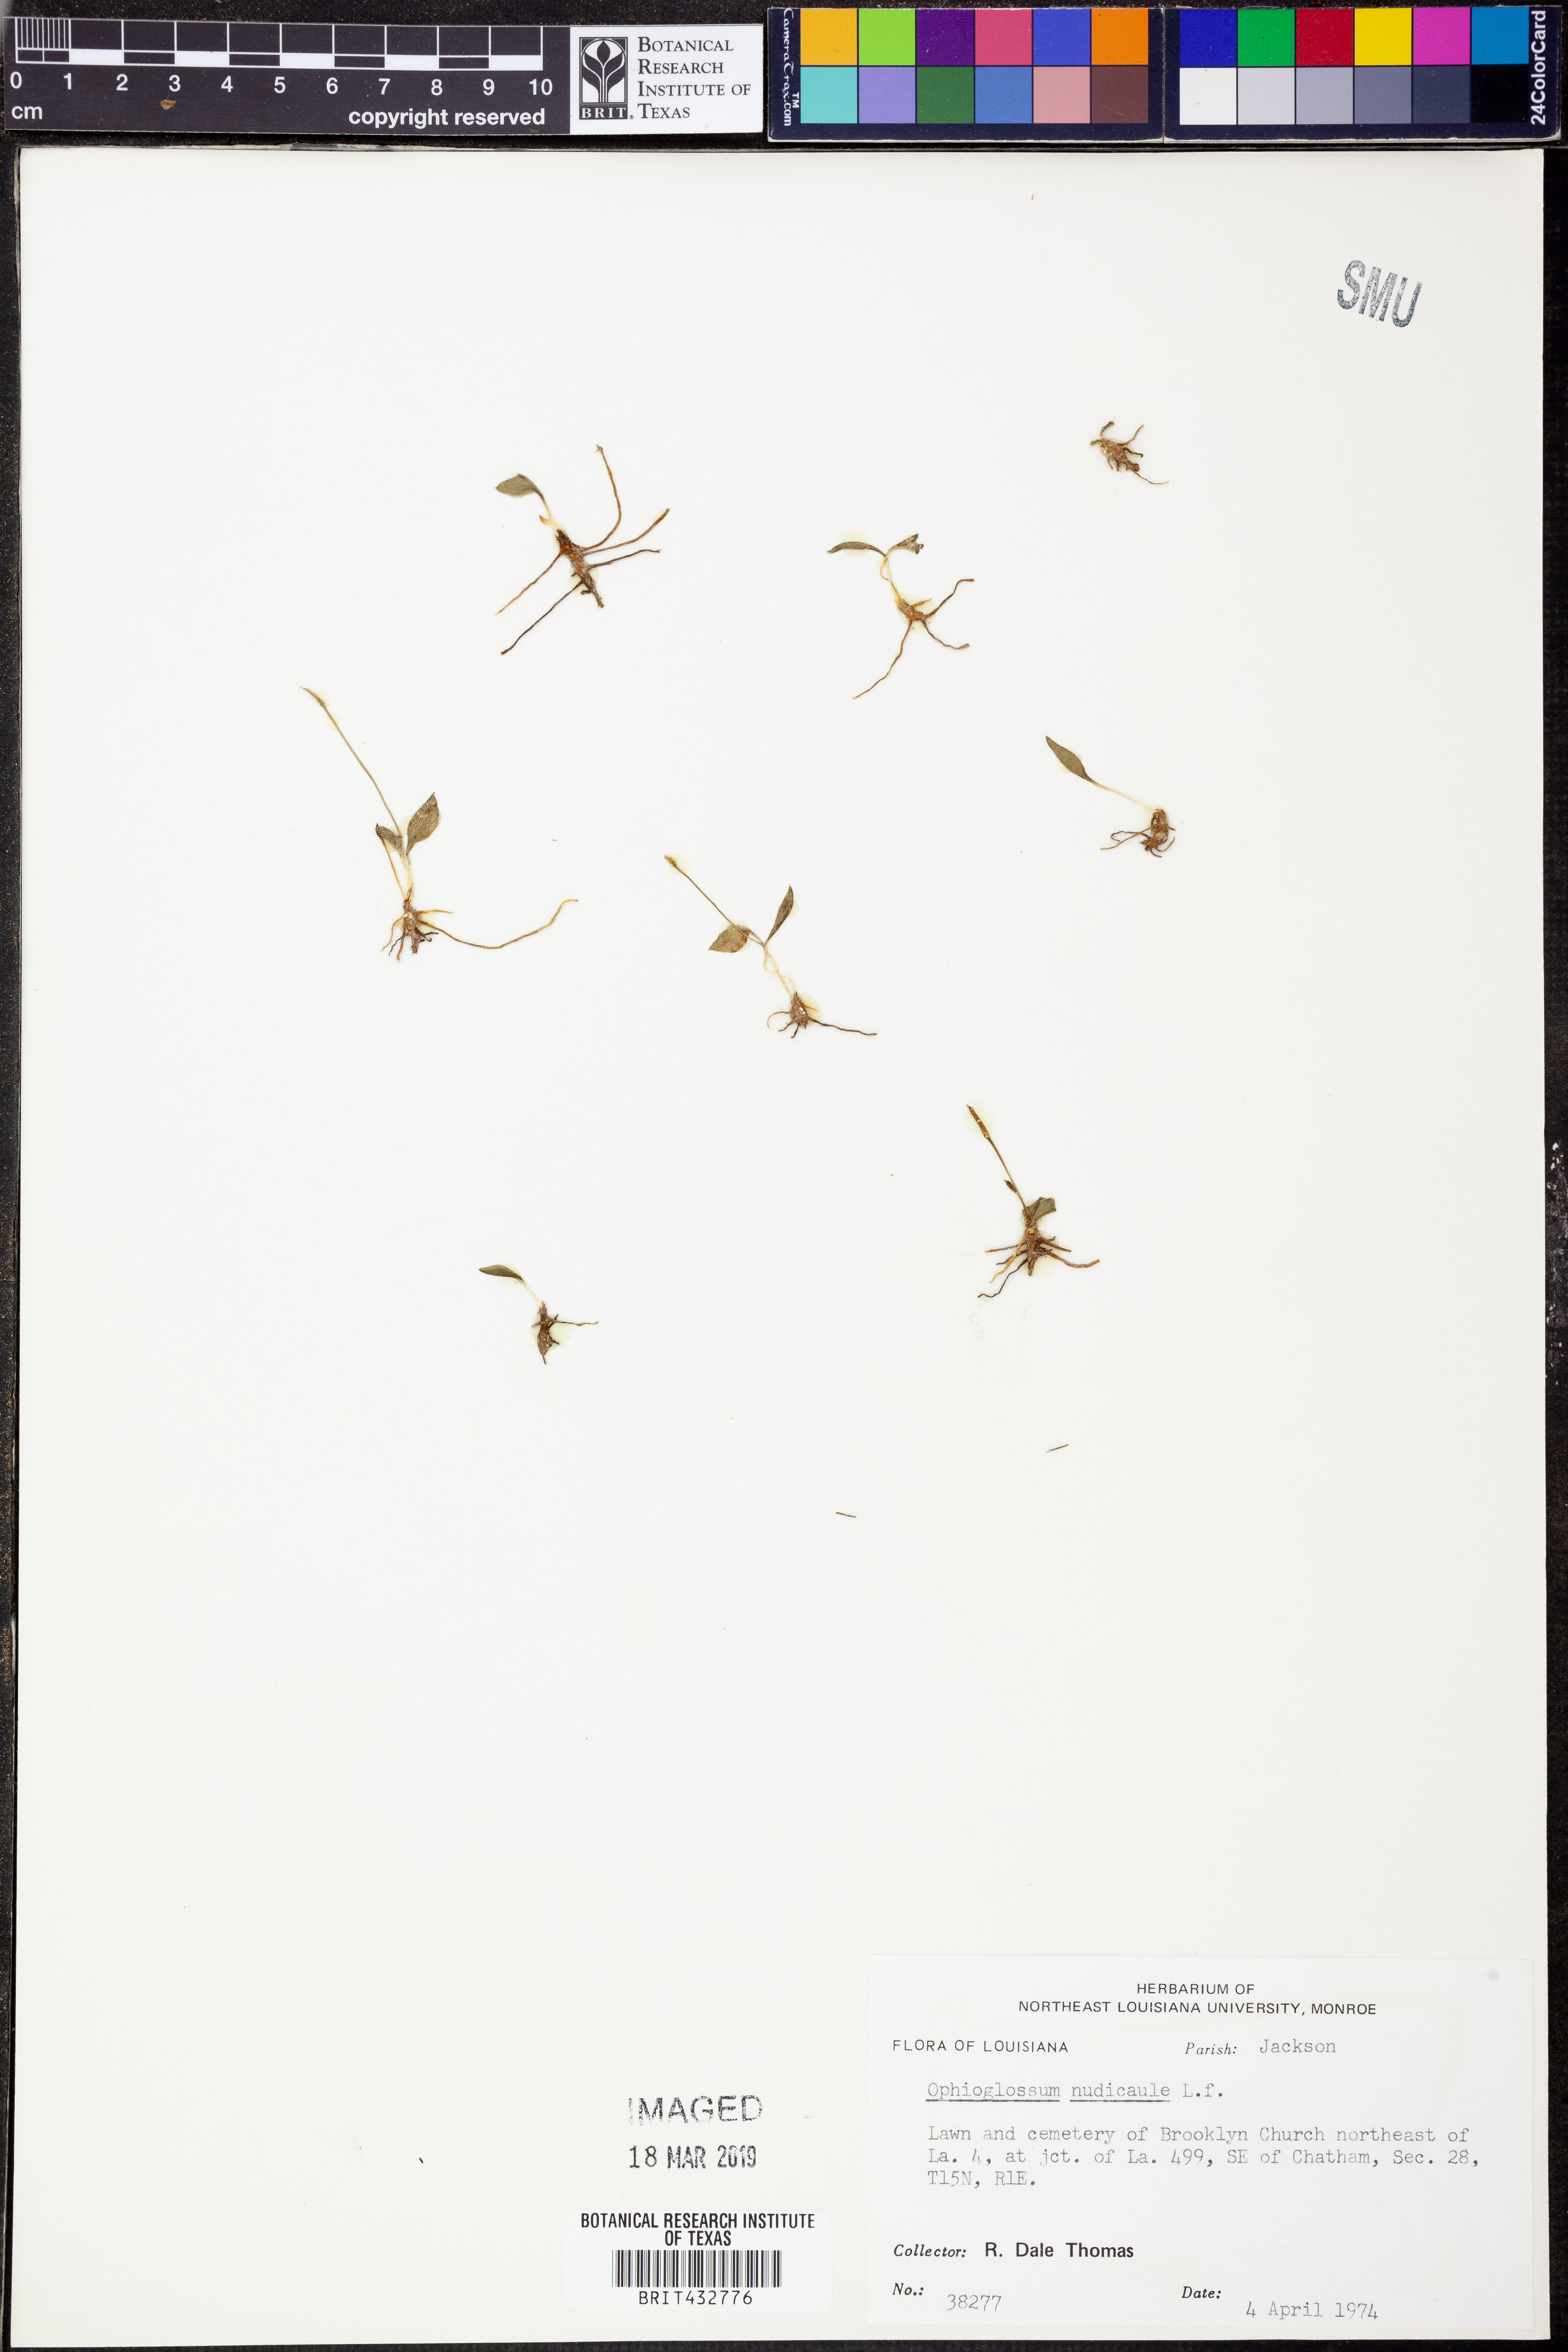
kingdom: Plantae
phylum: Tracheophyta
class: Polypodiopsida
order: Ophioglossales
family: Ophioglossaceae
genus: Ophioglossum
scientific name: Ophioglossum nudicaule
